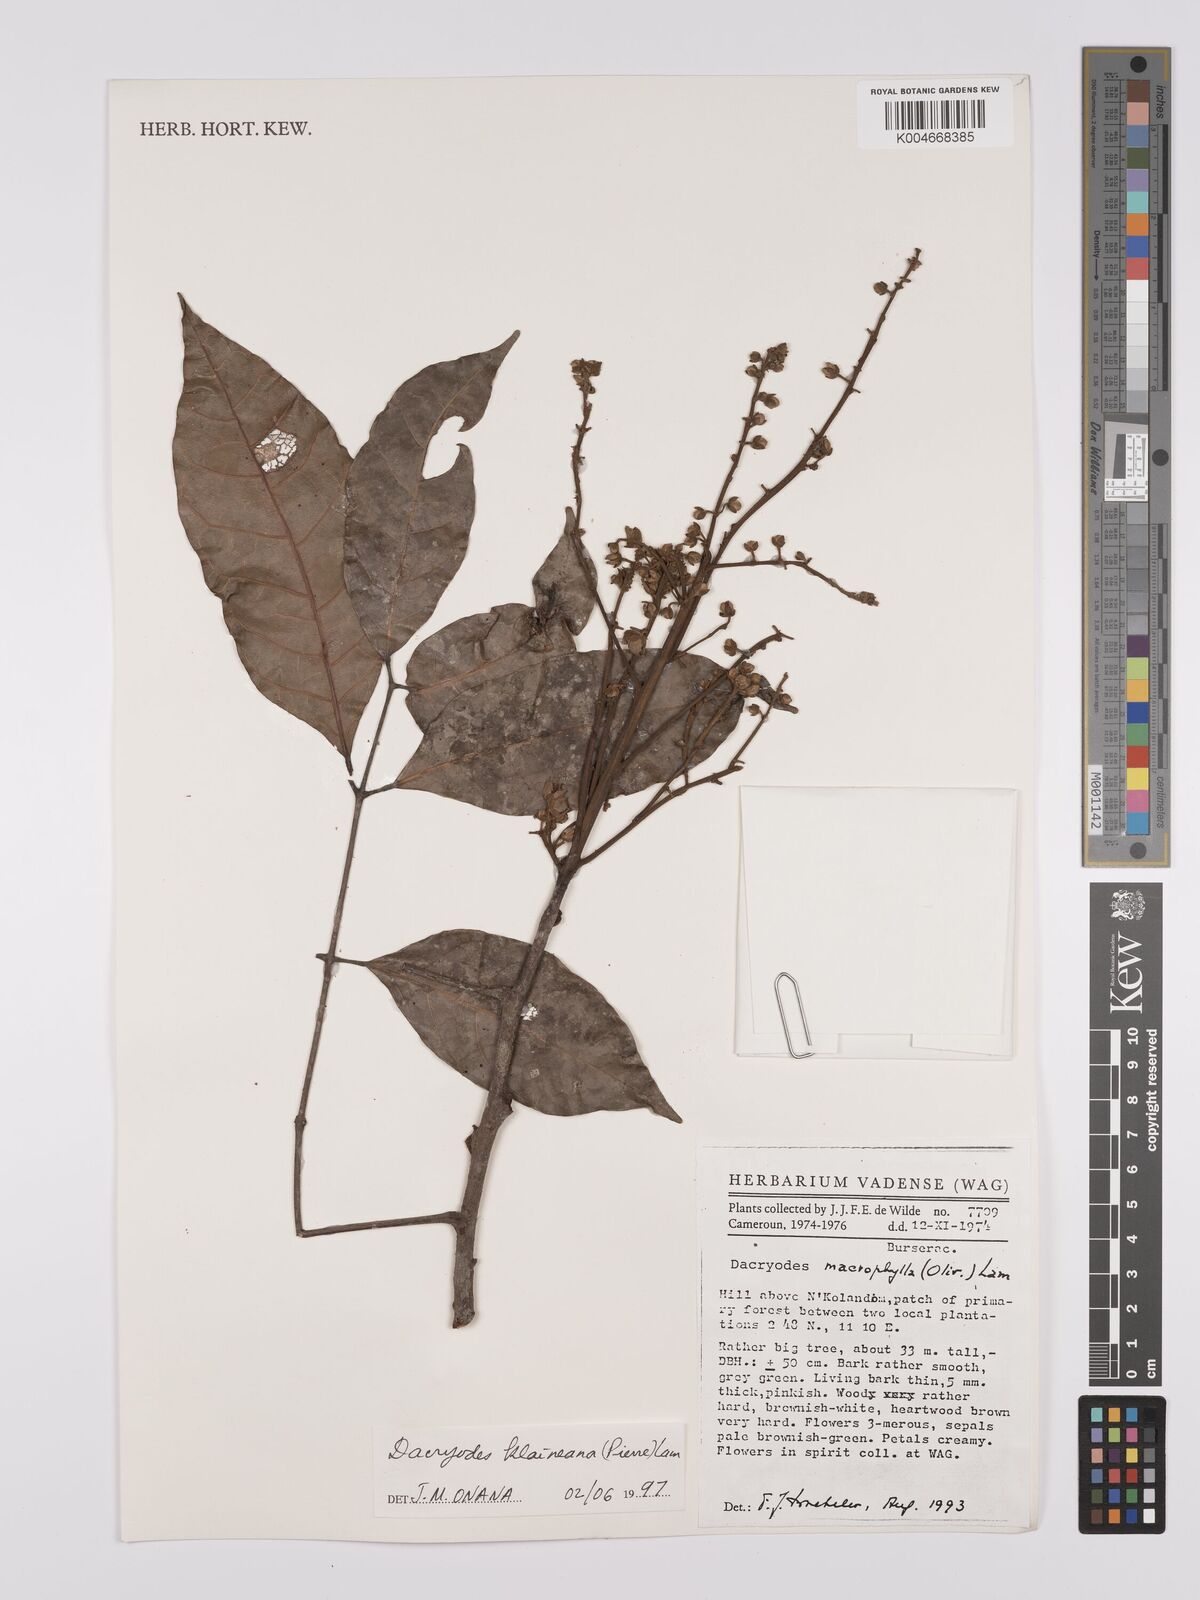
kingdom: Plantae
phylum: Tracheophyta
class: Magnoliopsida
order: Sapindales
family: Burseraceae
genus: Pachylobus
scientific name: Pachylobus klaineana
